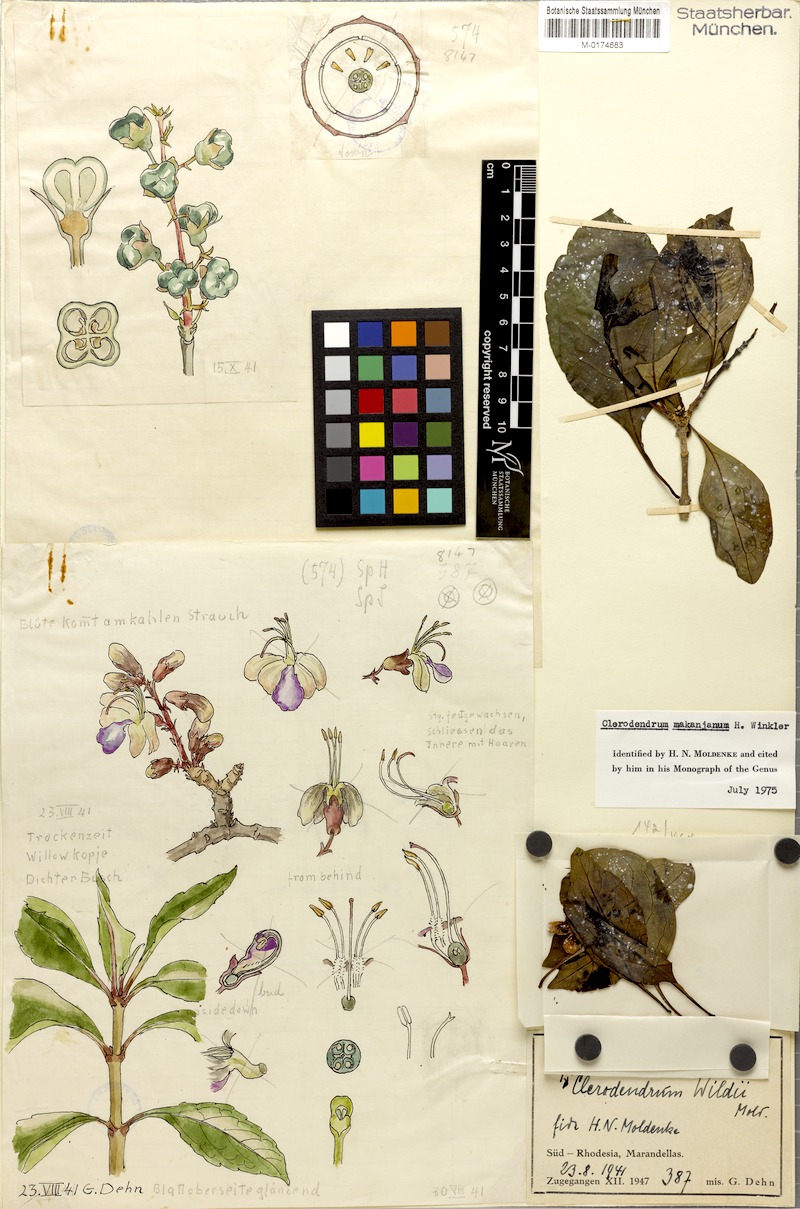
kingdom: Plantae
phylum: Tracheophyta
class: Magnoliopsida
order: Lamiales
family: Lamiaceae
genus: Rotheca
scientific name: Rotheca makanjana
